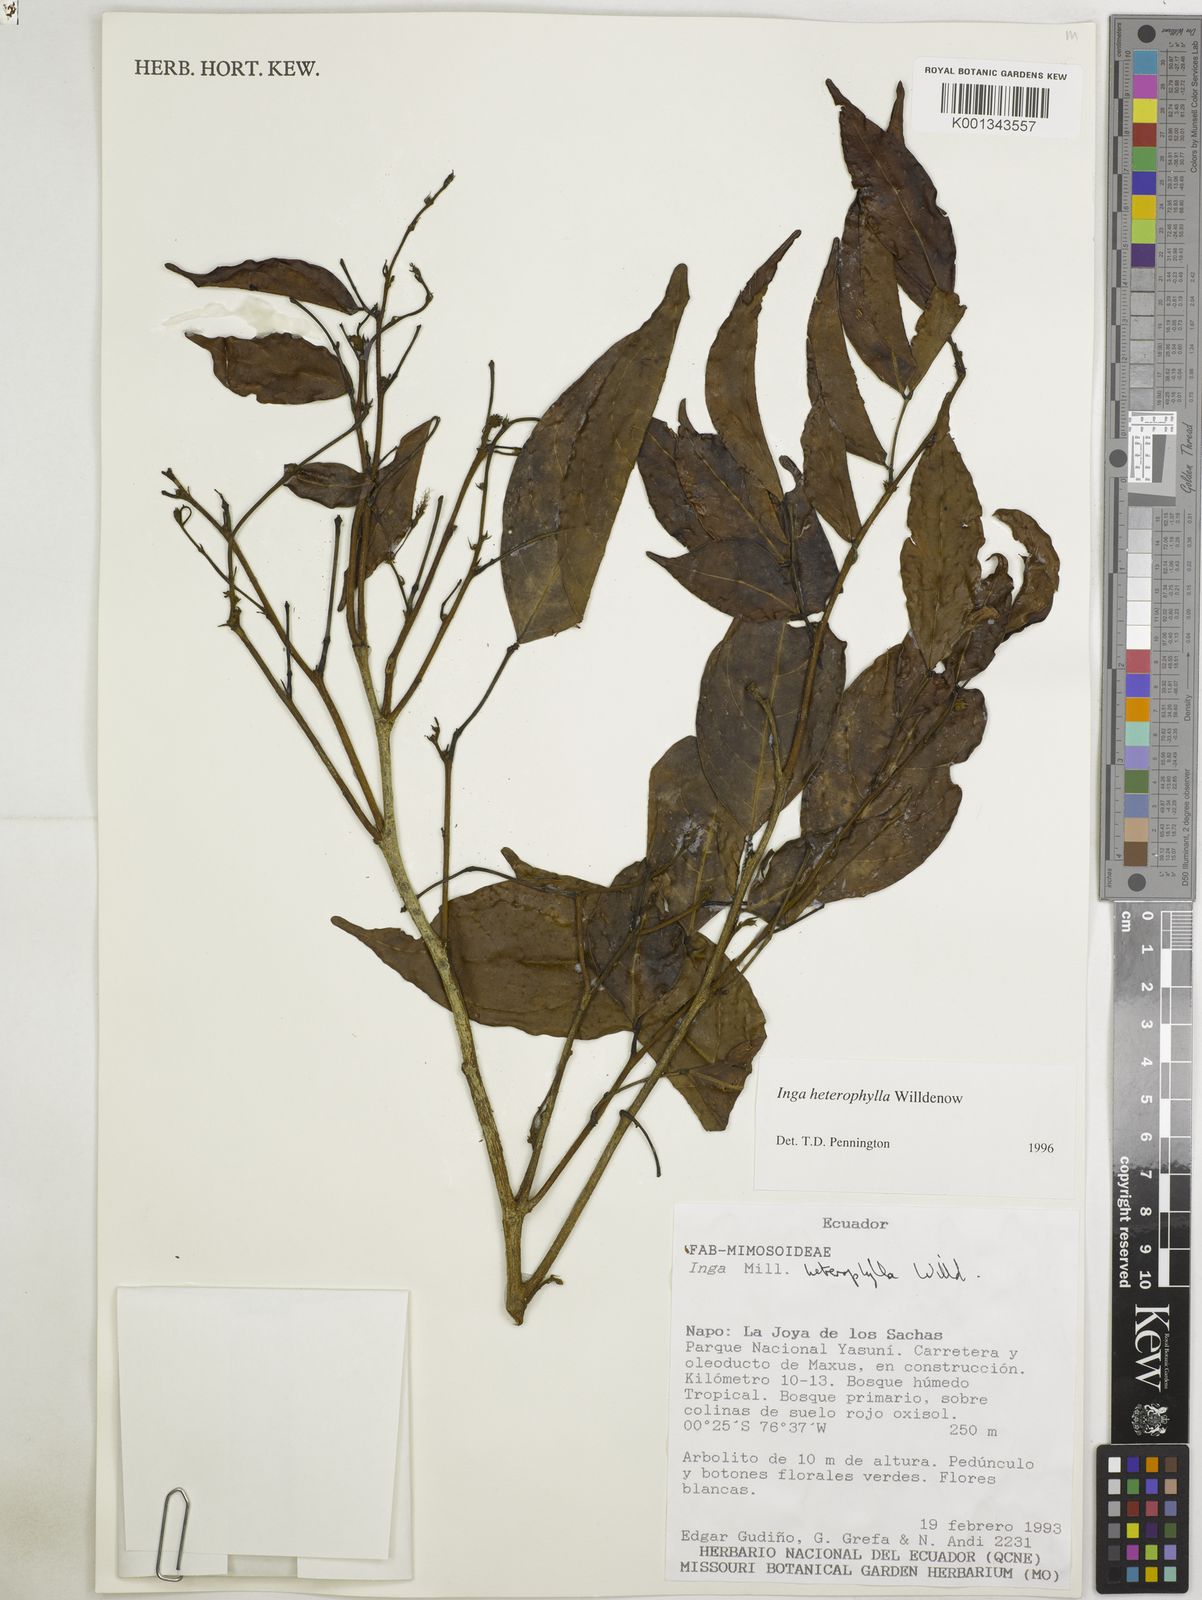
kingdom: Plantae
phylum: Tracheophyta
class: Magnoliopsida
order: Fabales
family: Fabaceae
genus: Inga
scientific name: Inga heterophylla
